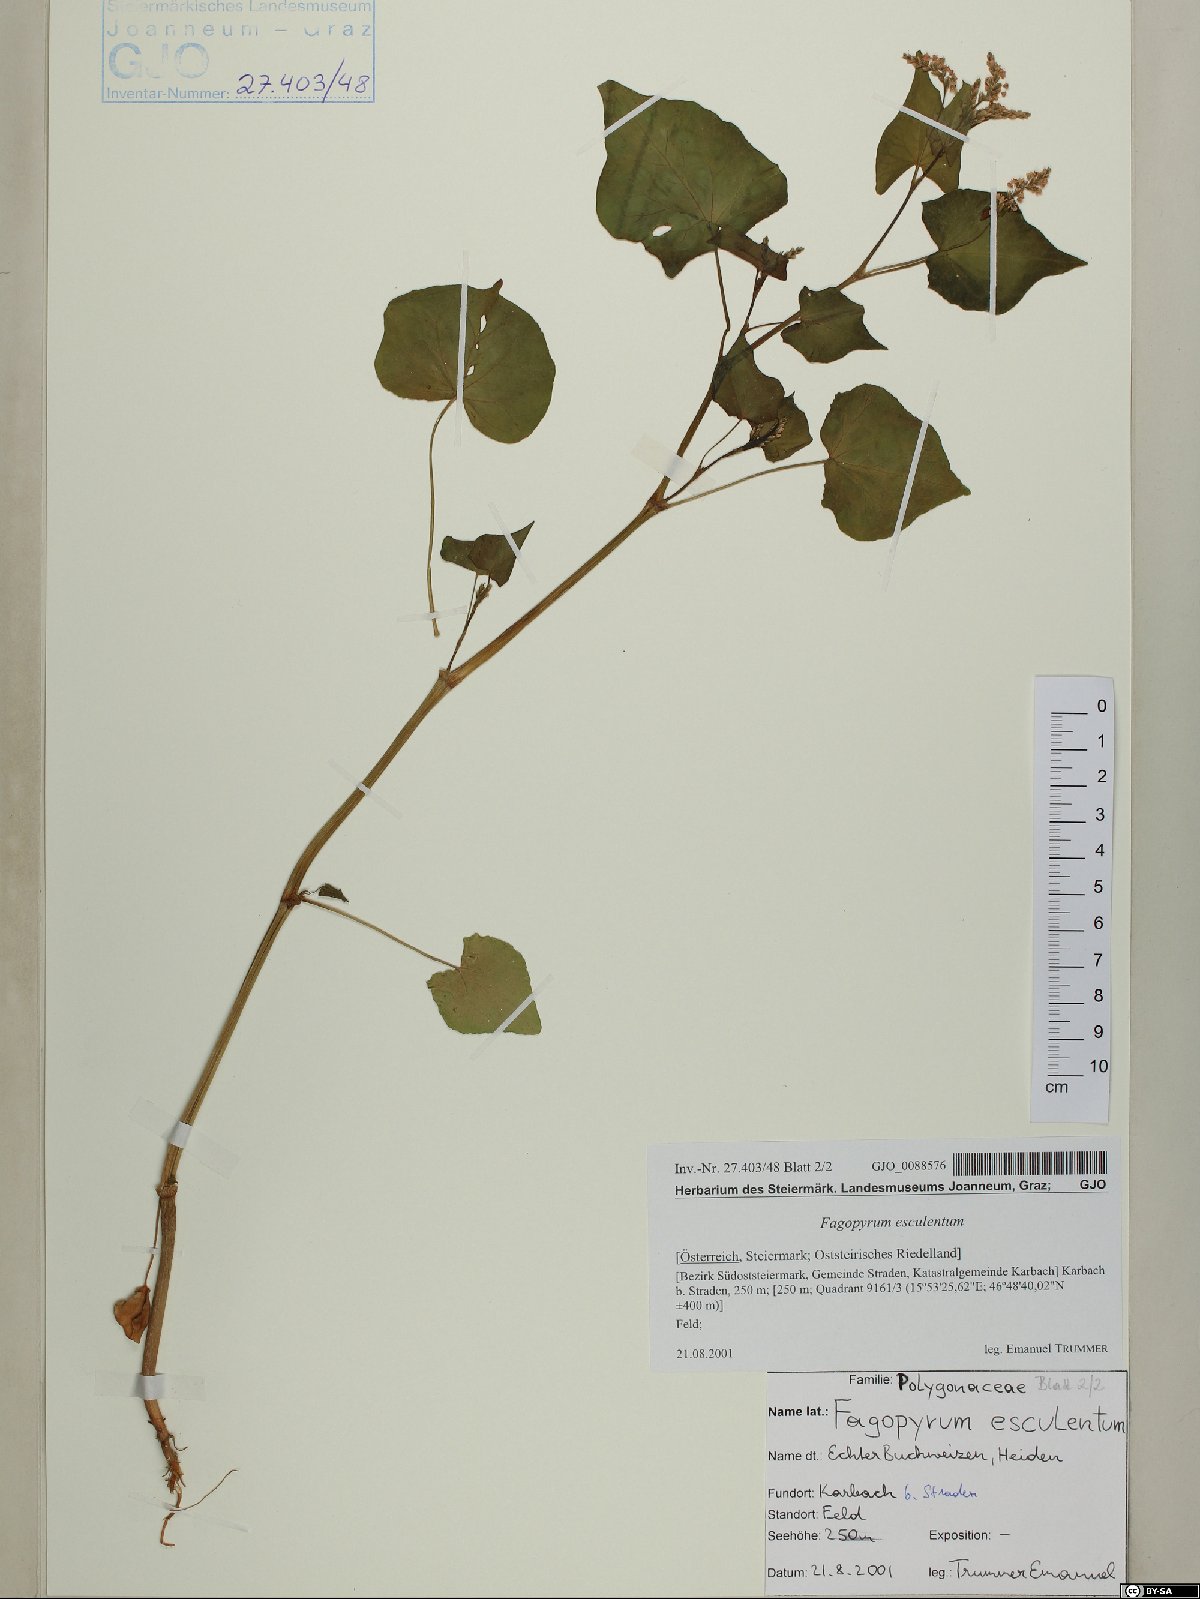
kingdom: Plantae
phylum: Tracheophyta
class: Magnoliopsida
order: Caryophyllales
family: Polygonaceae
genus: Fagopyrum
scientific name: Fagopyrum esculentum
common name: Buckwheat
